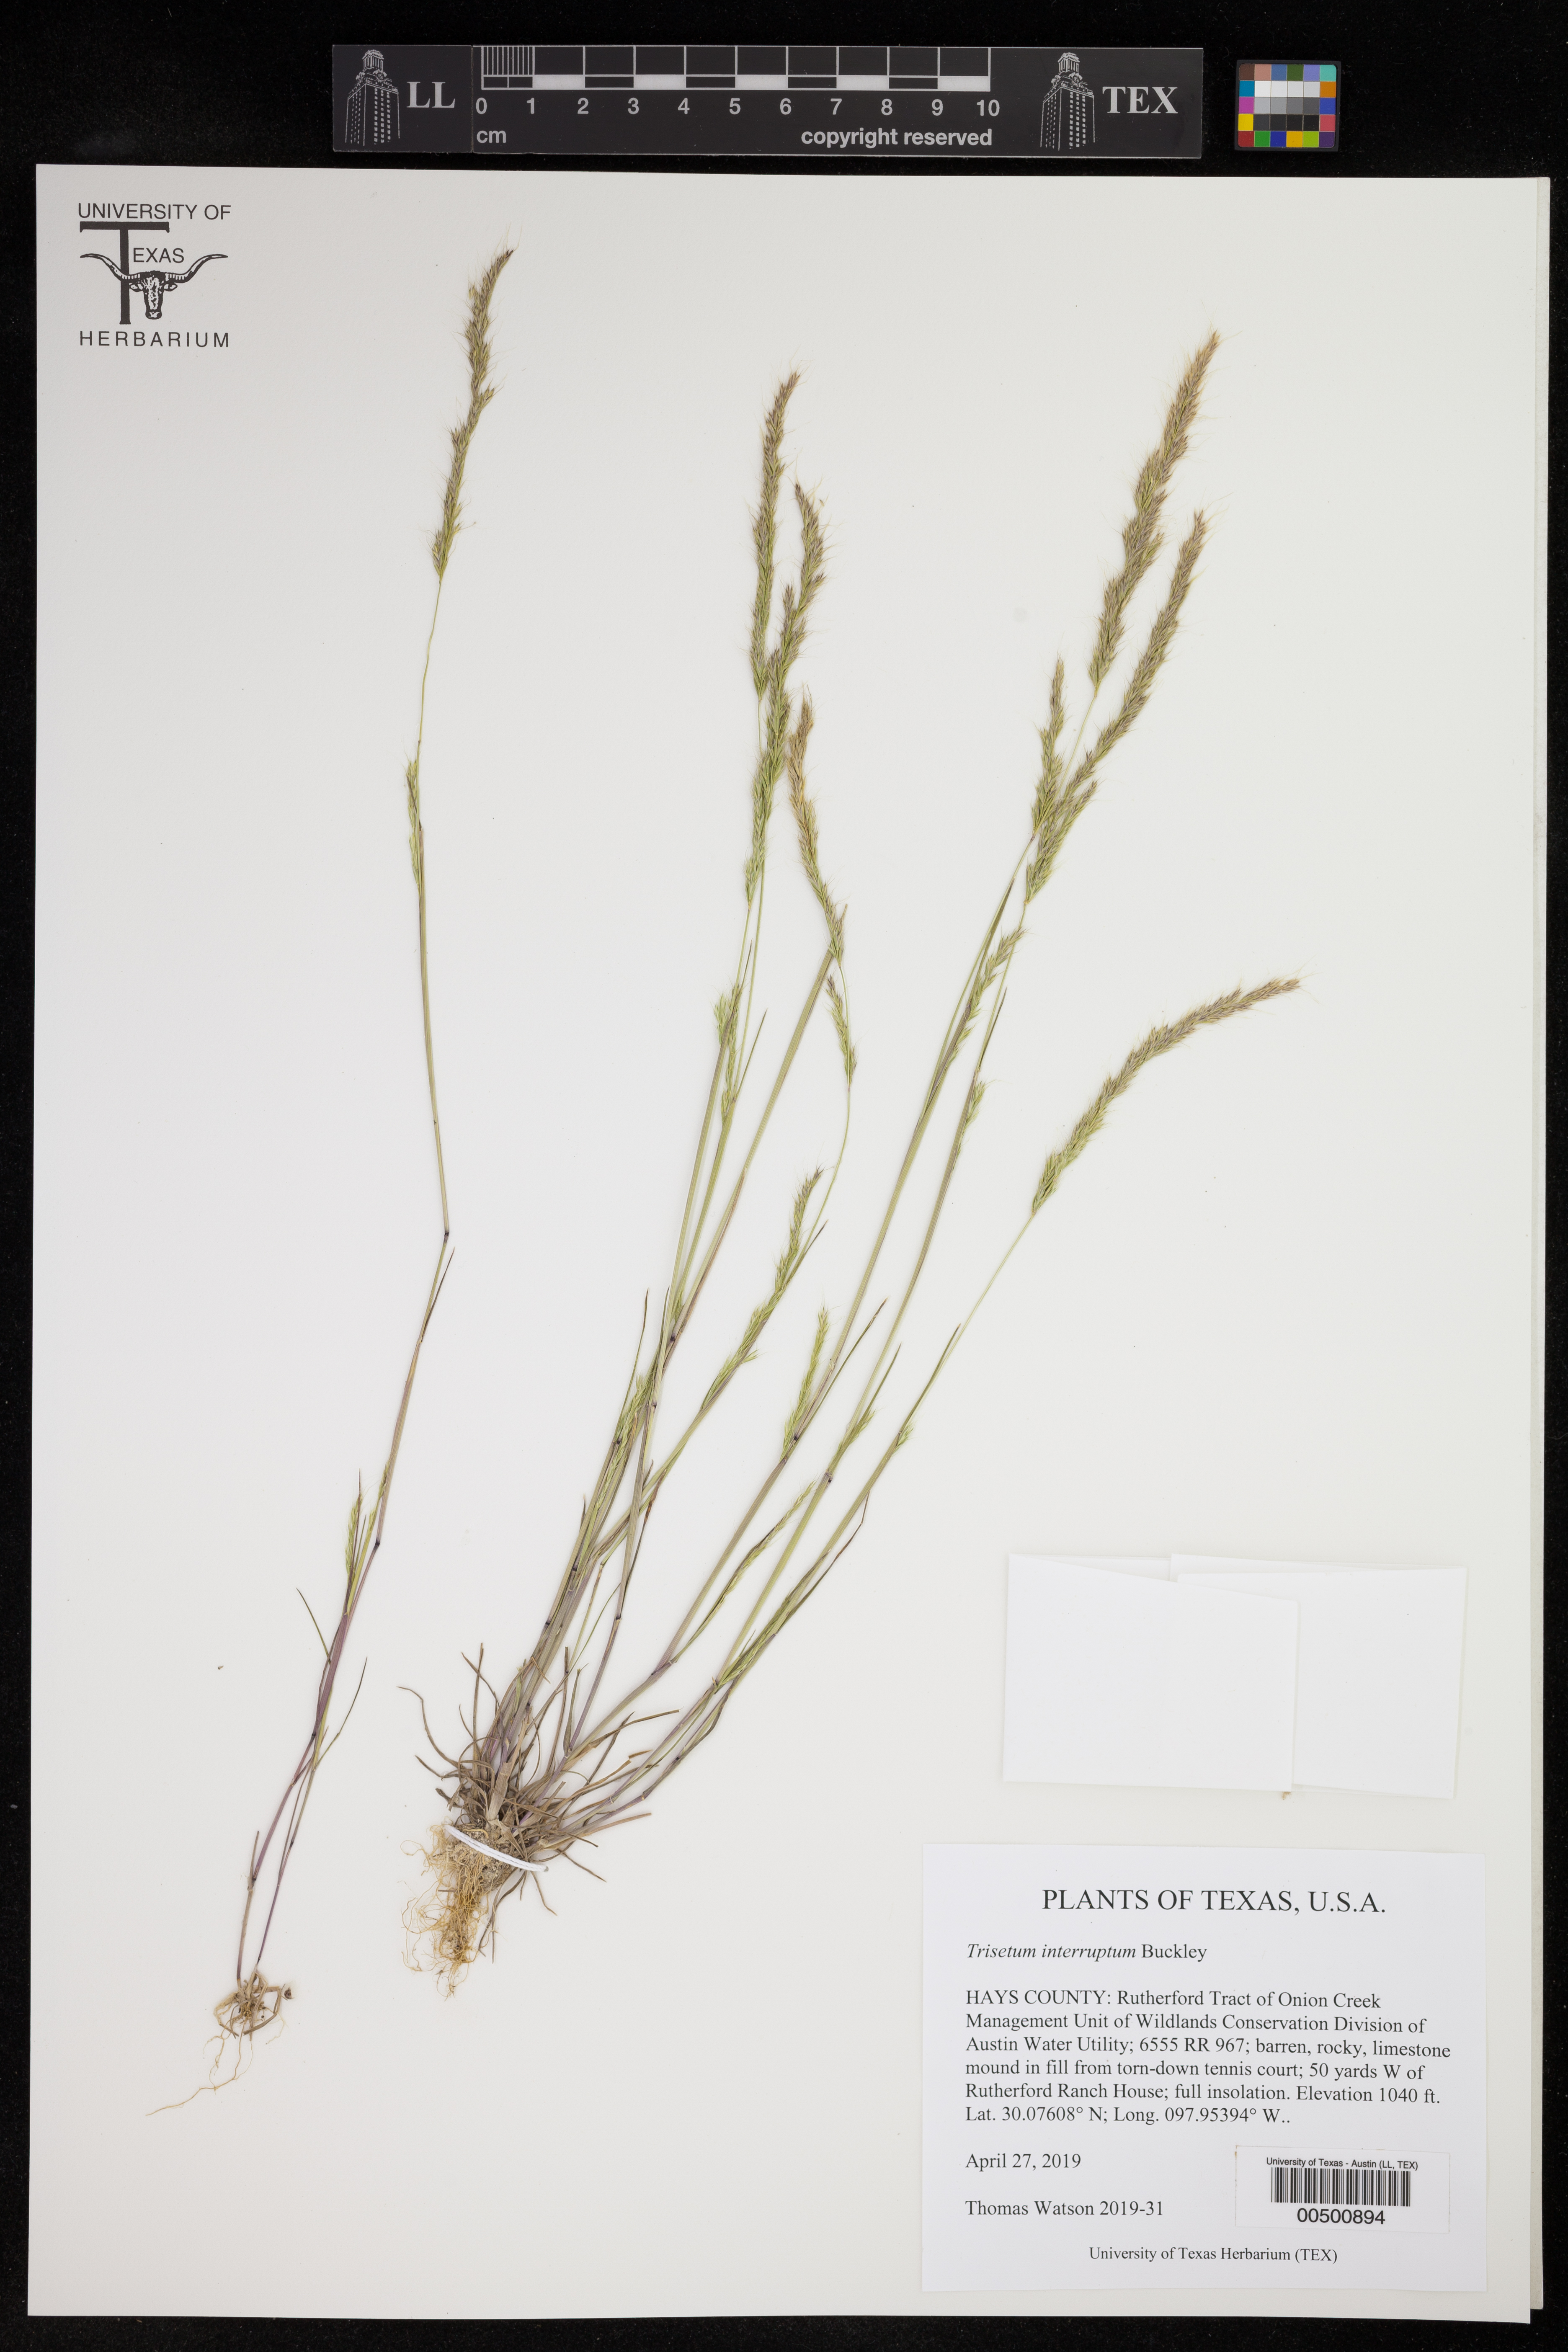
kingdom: Plantae
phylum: Tracheophyta
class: Liliopsida
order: Poales
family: Poaceae
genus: Trisetum
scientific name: Trisetum interruptum
